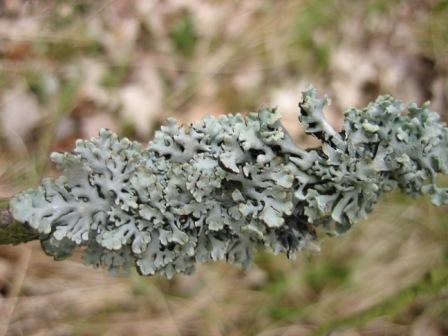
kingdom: Fungi
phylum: Ascomycota
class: Lecanoromycetes
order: Lecanorales
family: Parmeliaceae
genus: Hypogymnia
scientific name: Hypogymnia physodes
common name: almindelig kvistlav
